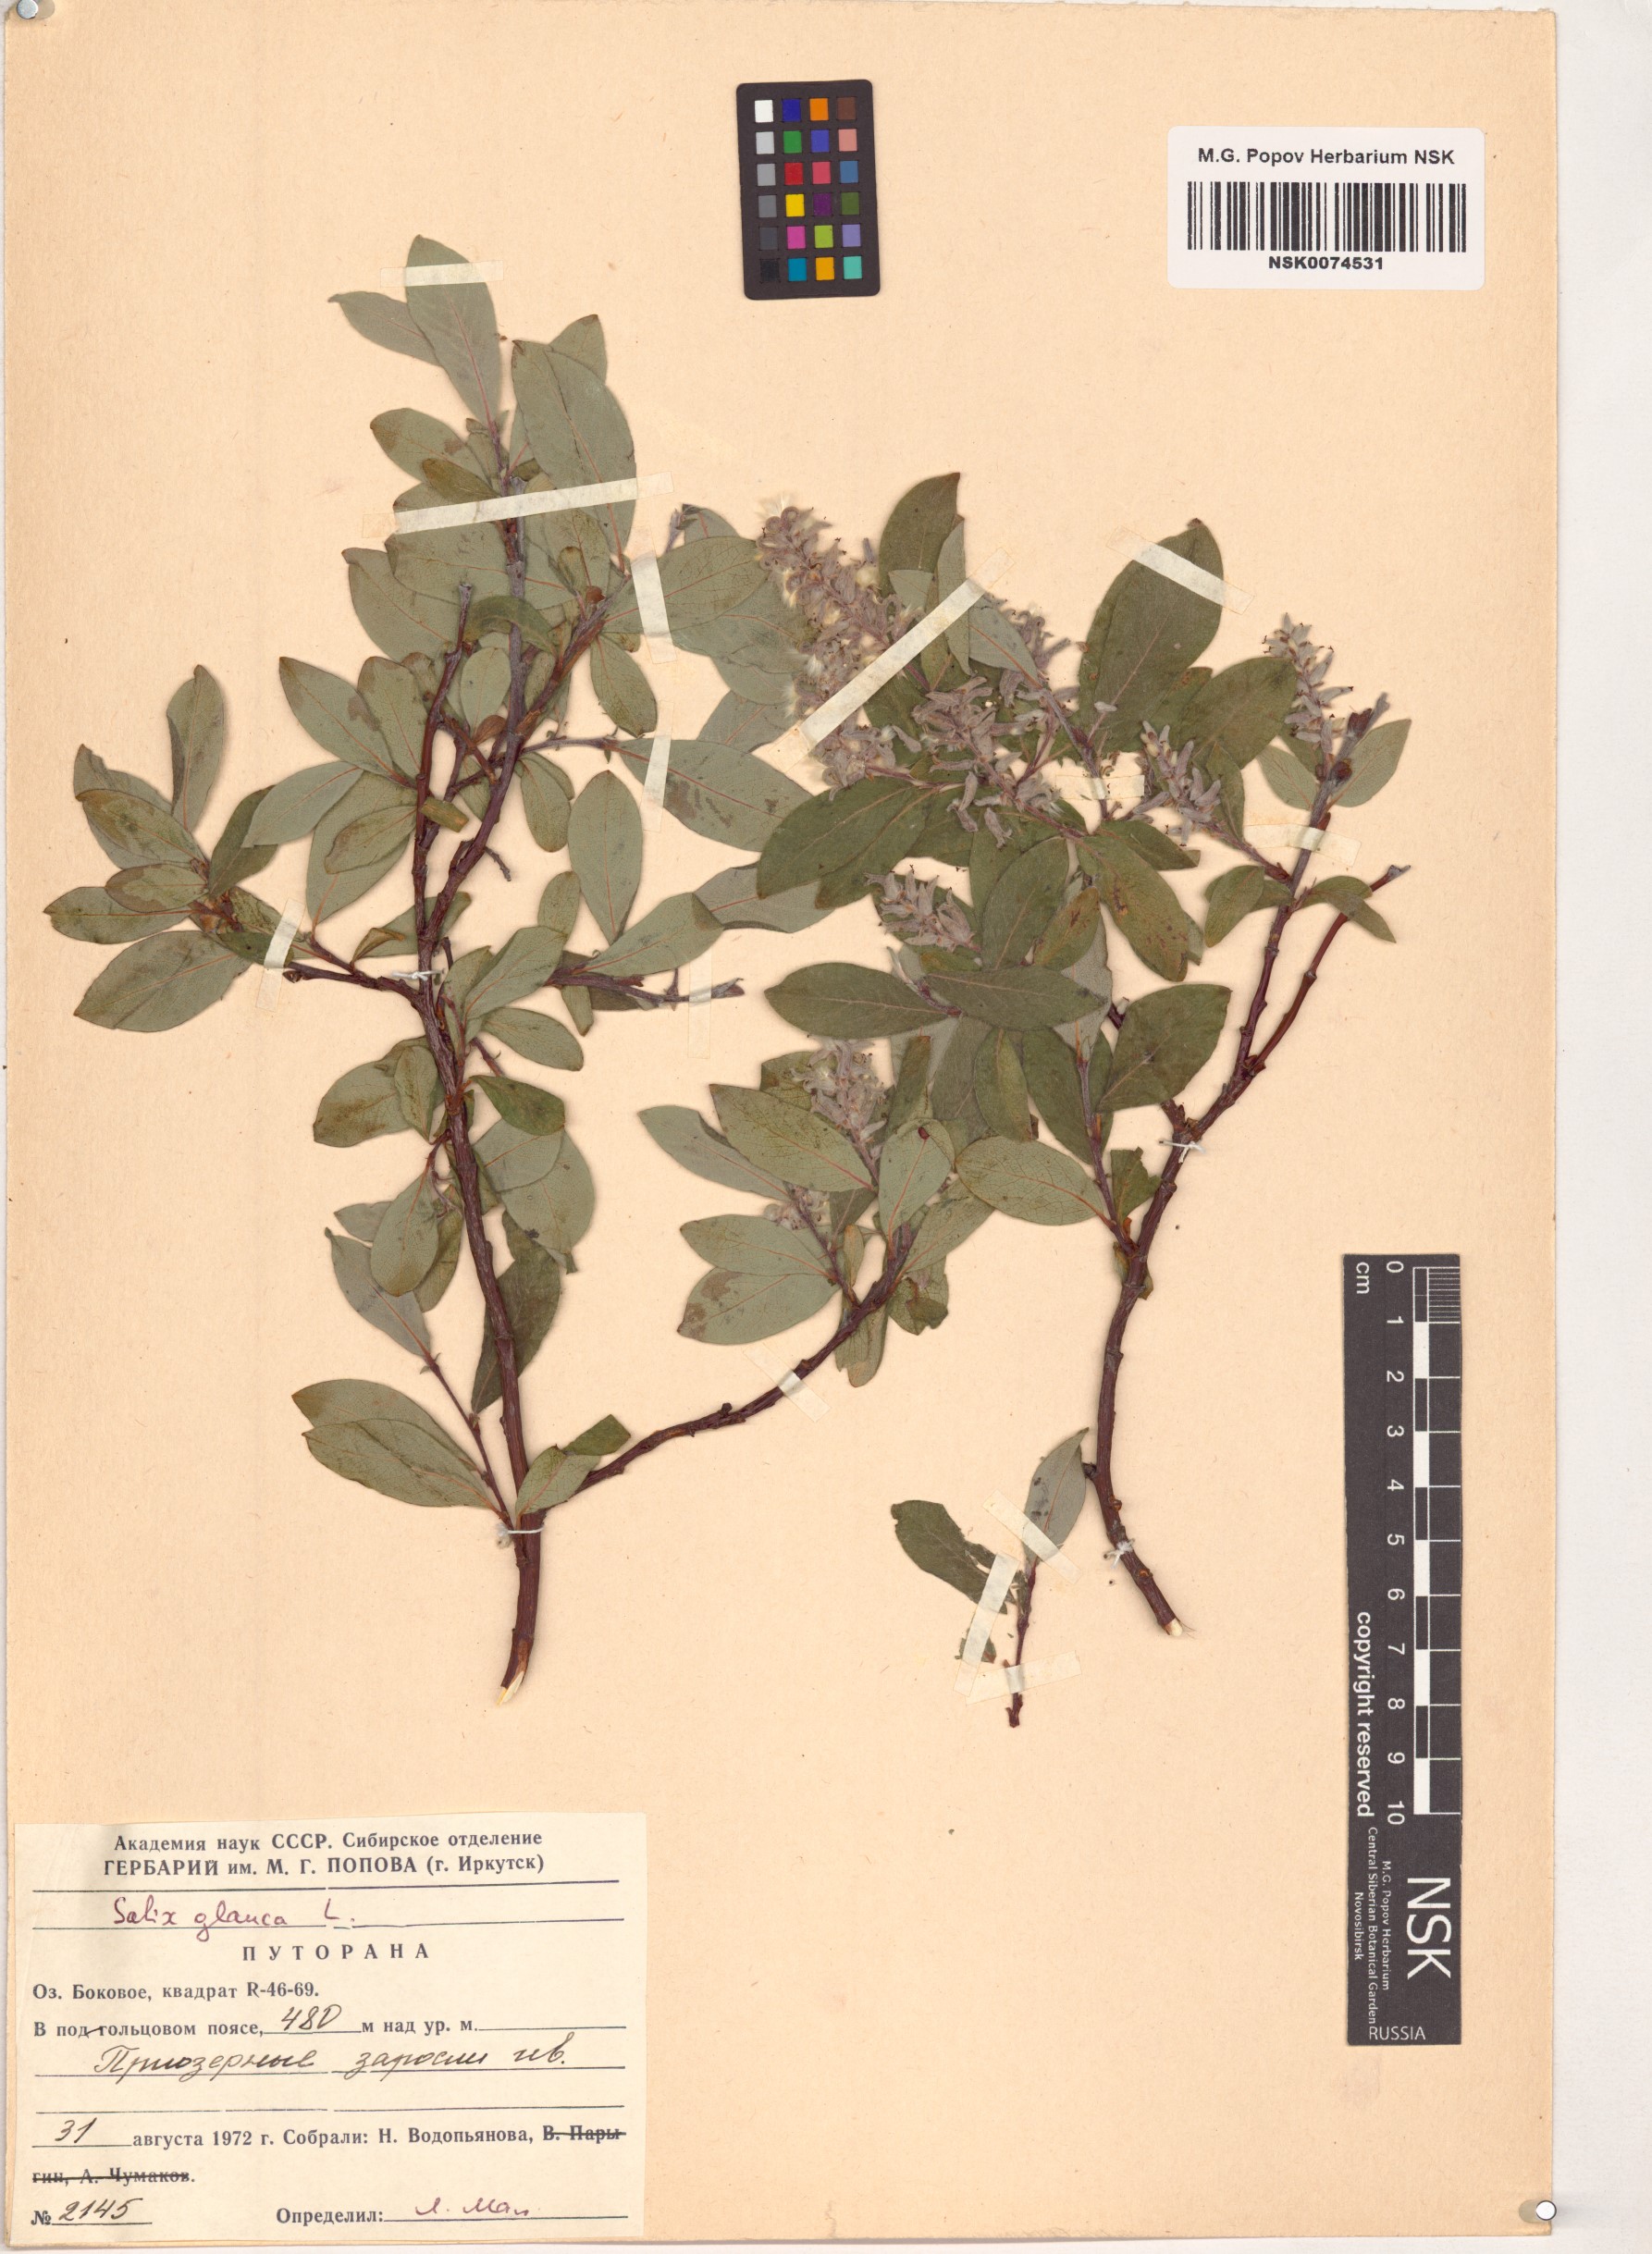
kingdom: Plantae
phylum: Tracheophyta
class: Magnoliopsida
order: Malpighiales
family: Salicaceae
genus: Salix
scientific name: Salix glauca
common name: Glaucous willow
